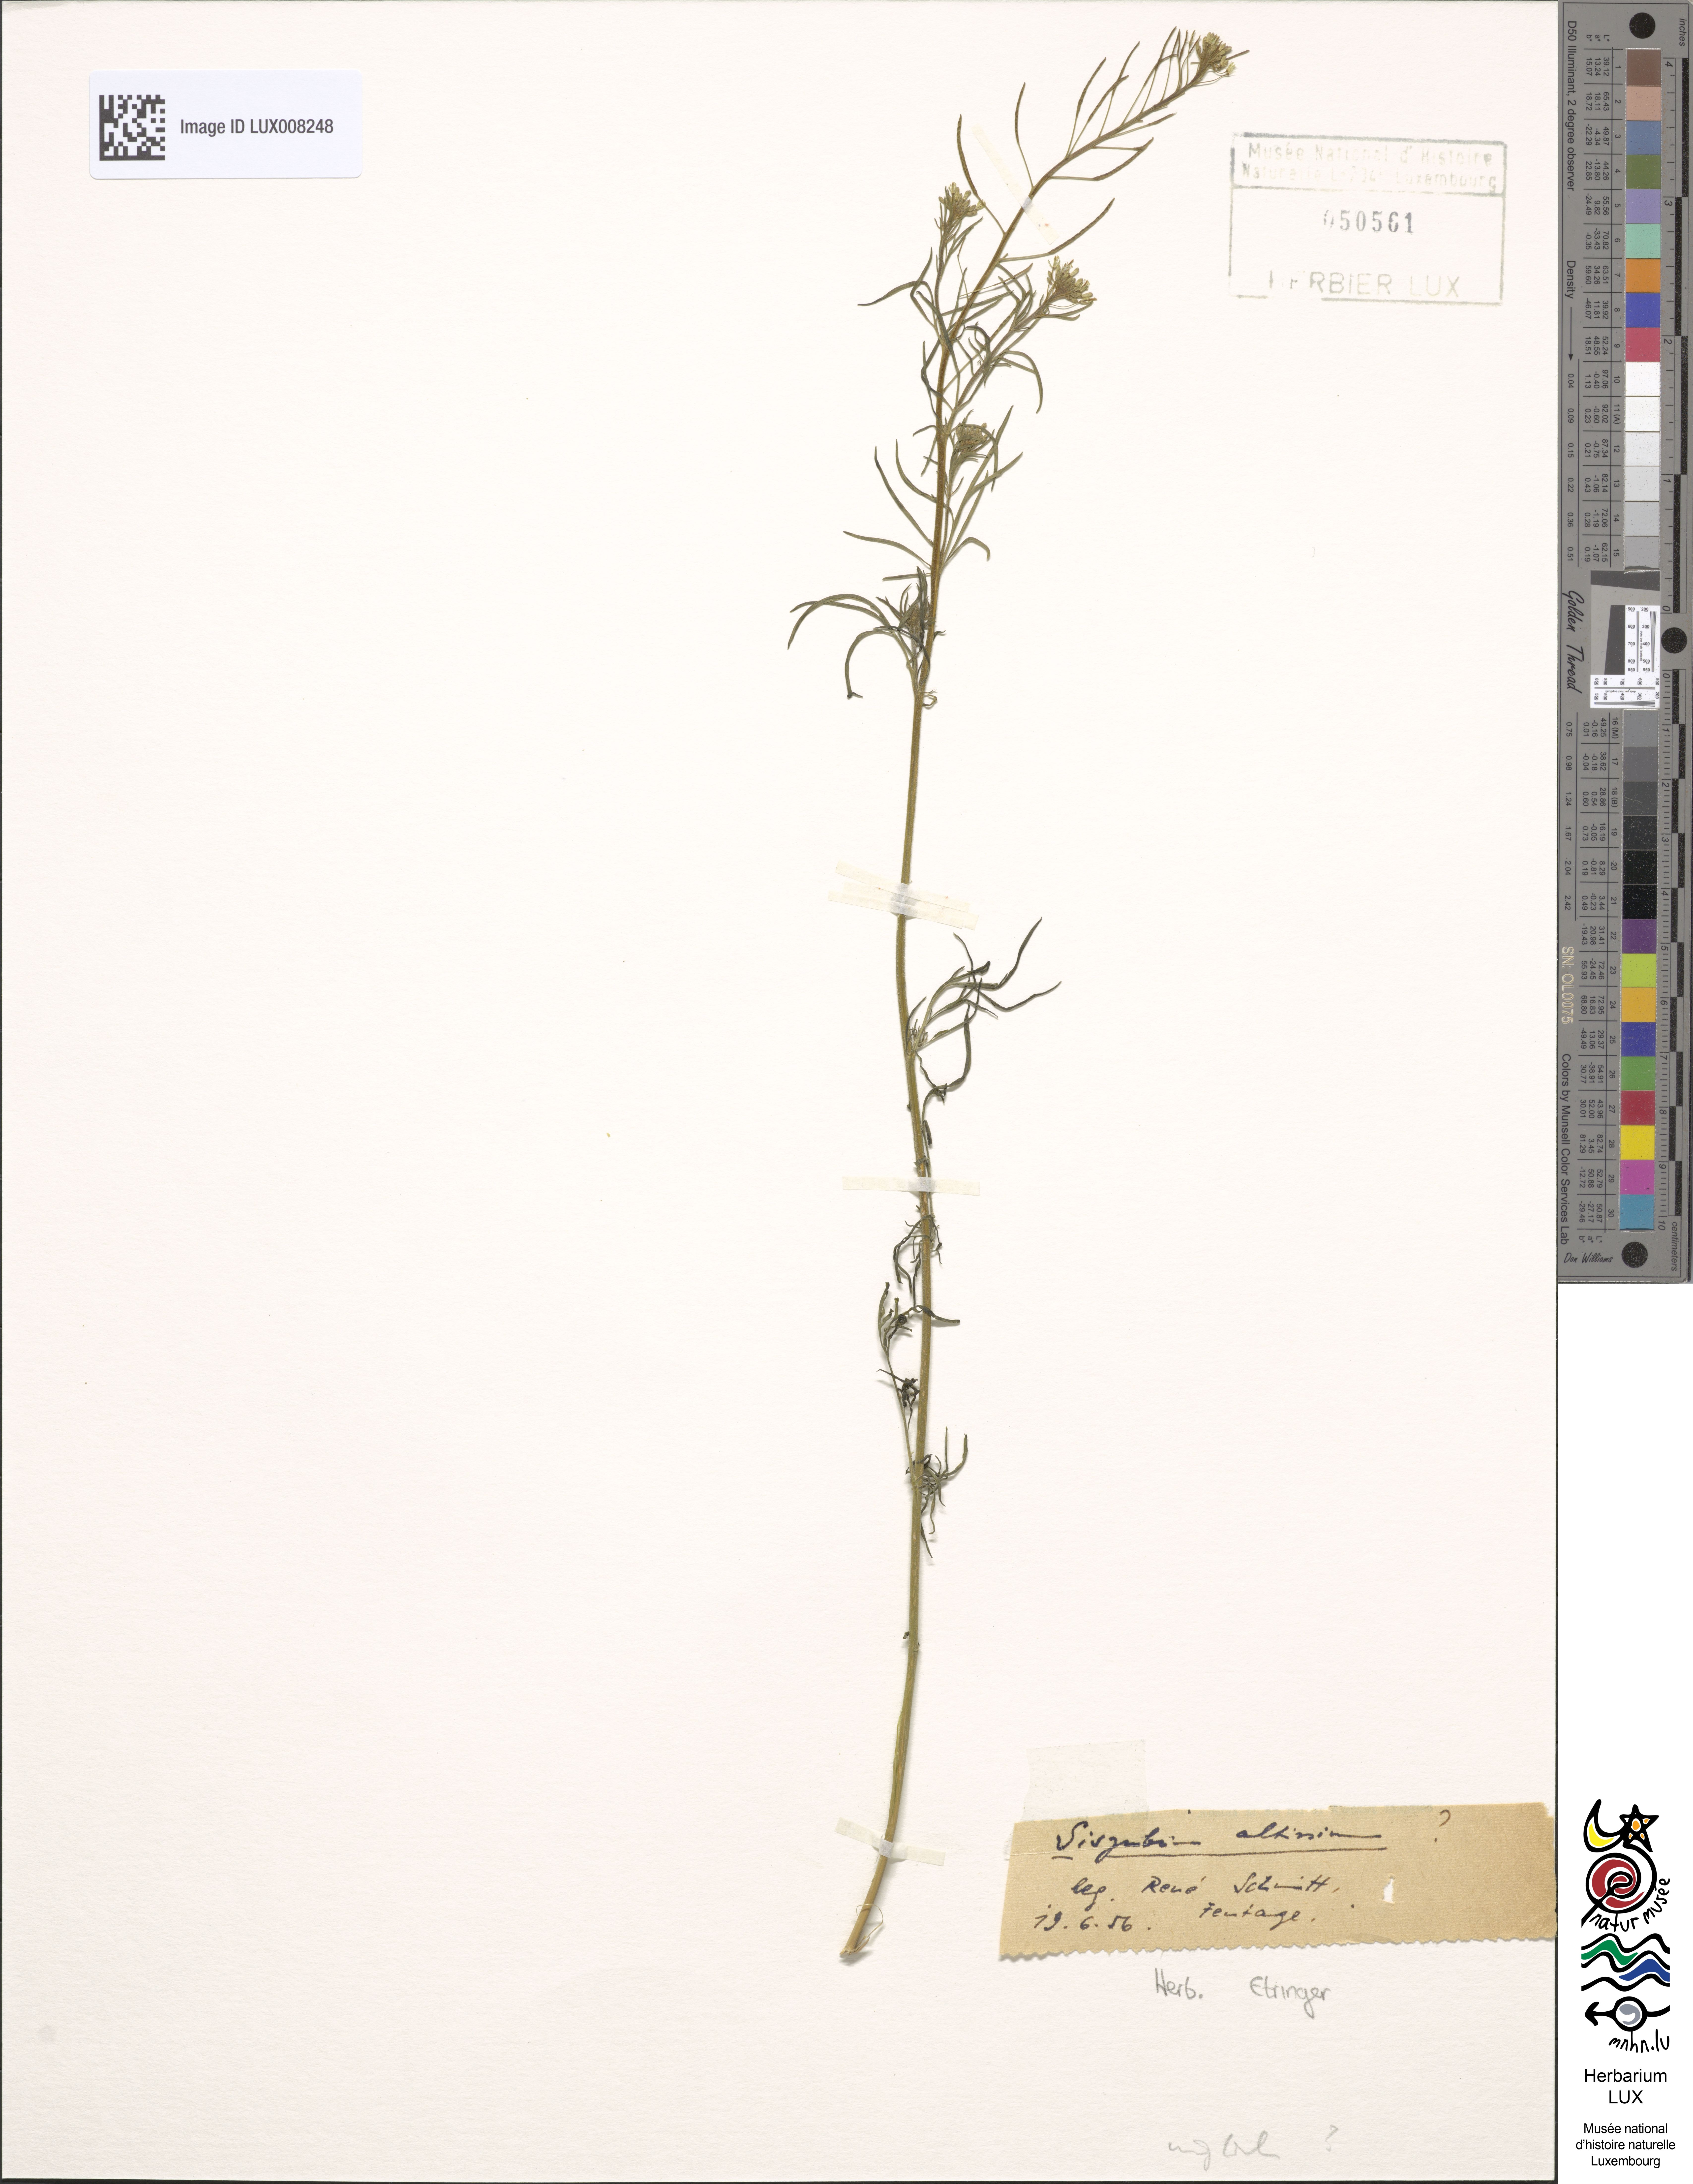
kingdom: Plantae
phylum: Tracheophyta
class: Magnoliopsida
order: Brassicales
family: Brassicaceae
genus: Sisymbrium
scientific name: Sisymbrium altissimum
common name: Tall rocket
